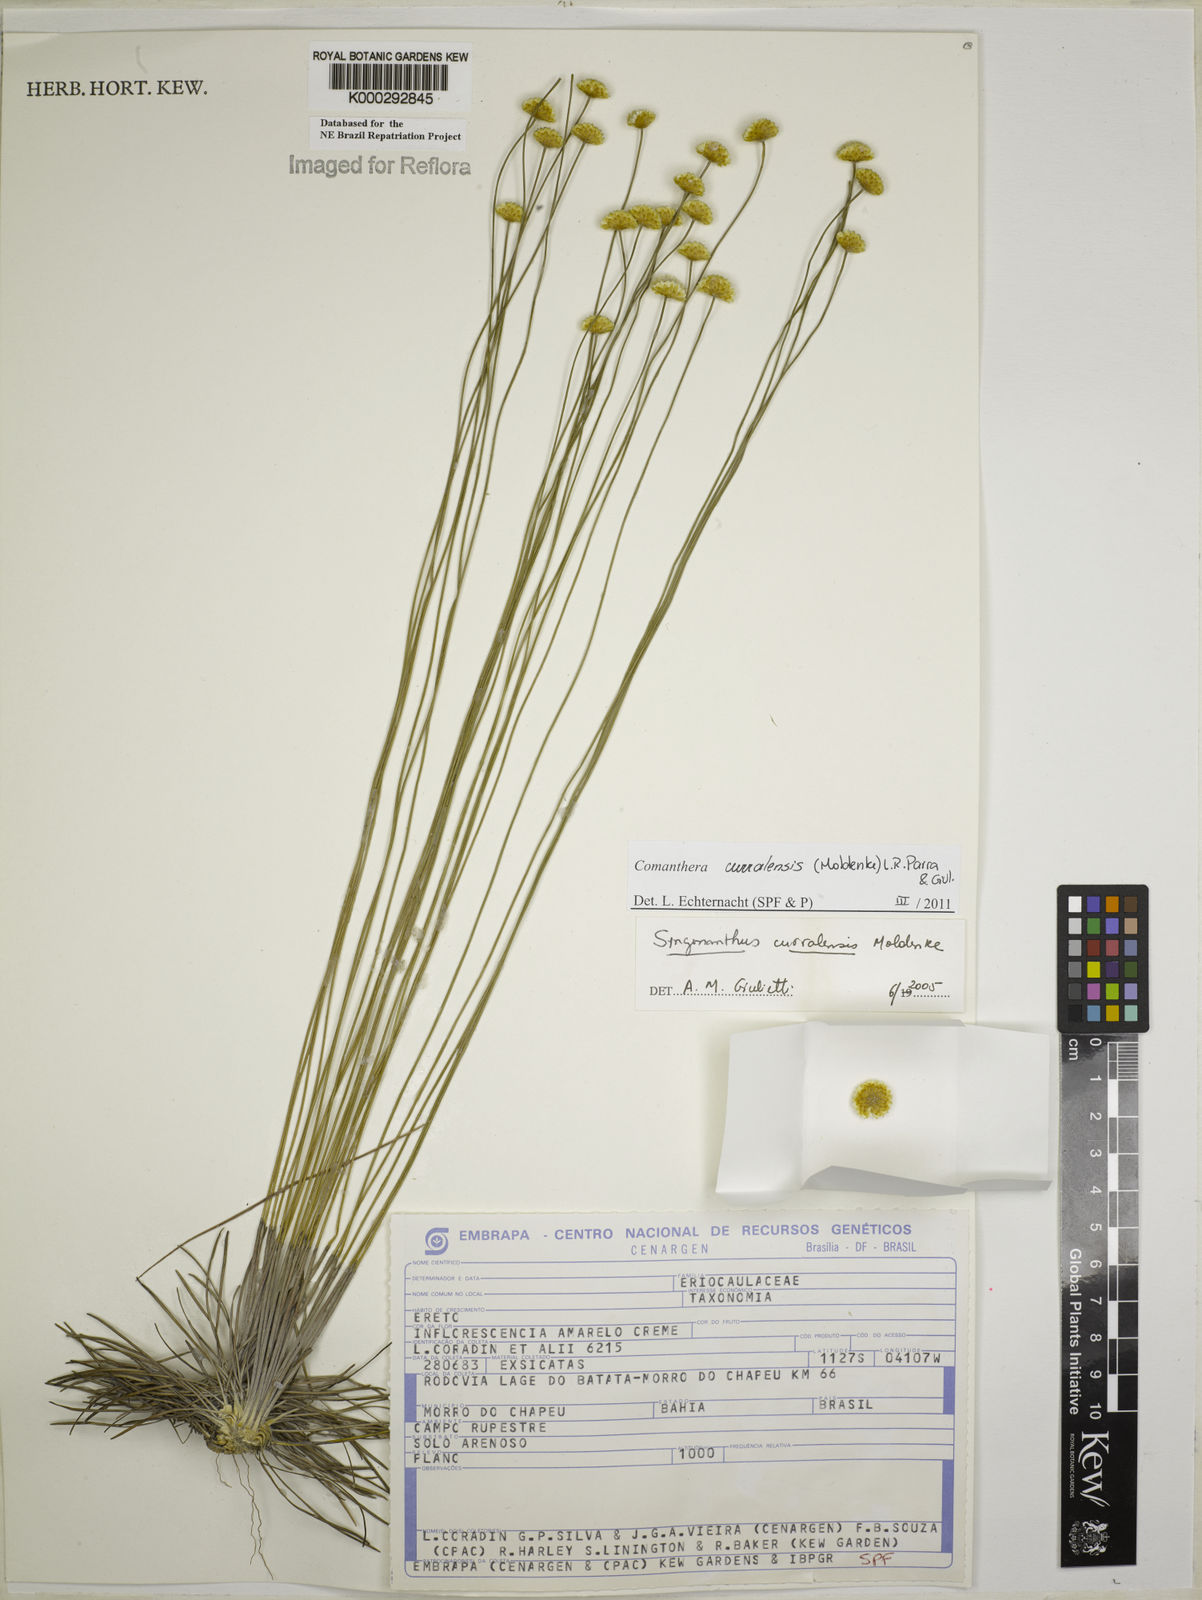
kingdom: Plantae
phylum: Tracheophyta
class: Liliopsida
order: Poales
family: Eriocaulaceae
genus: Syngonanthus
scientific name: Syngonanthus
